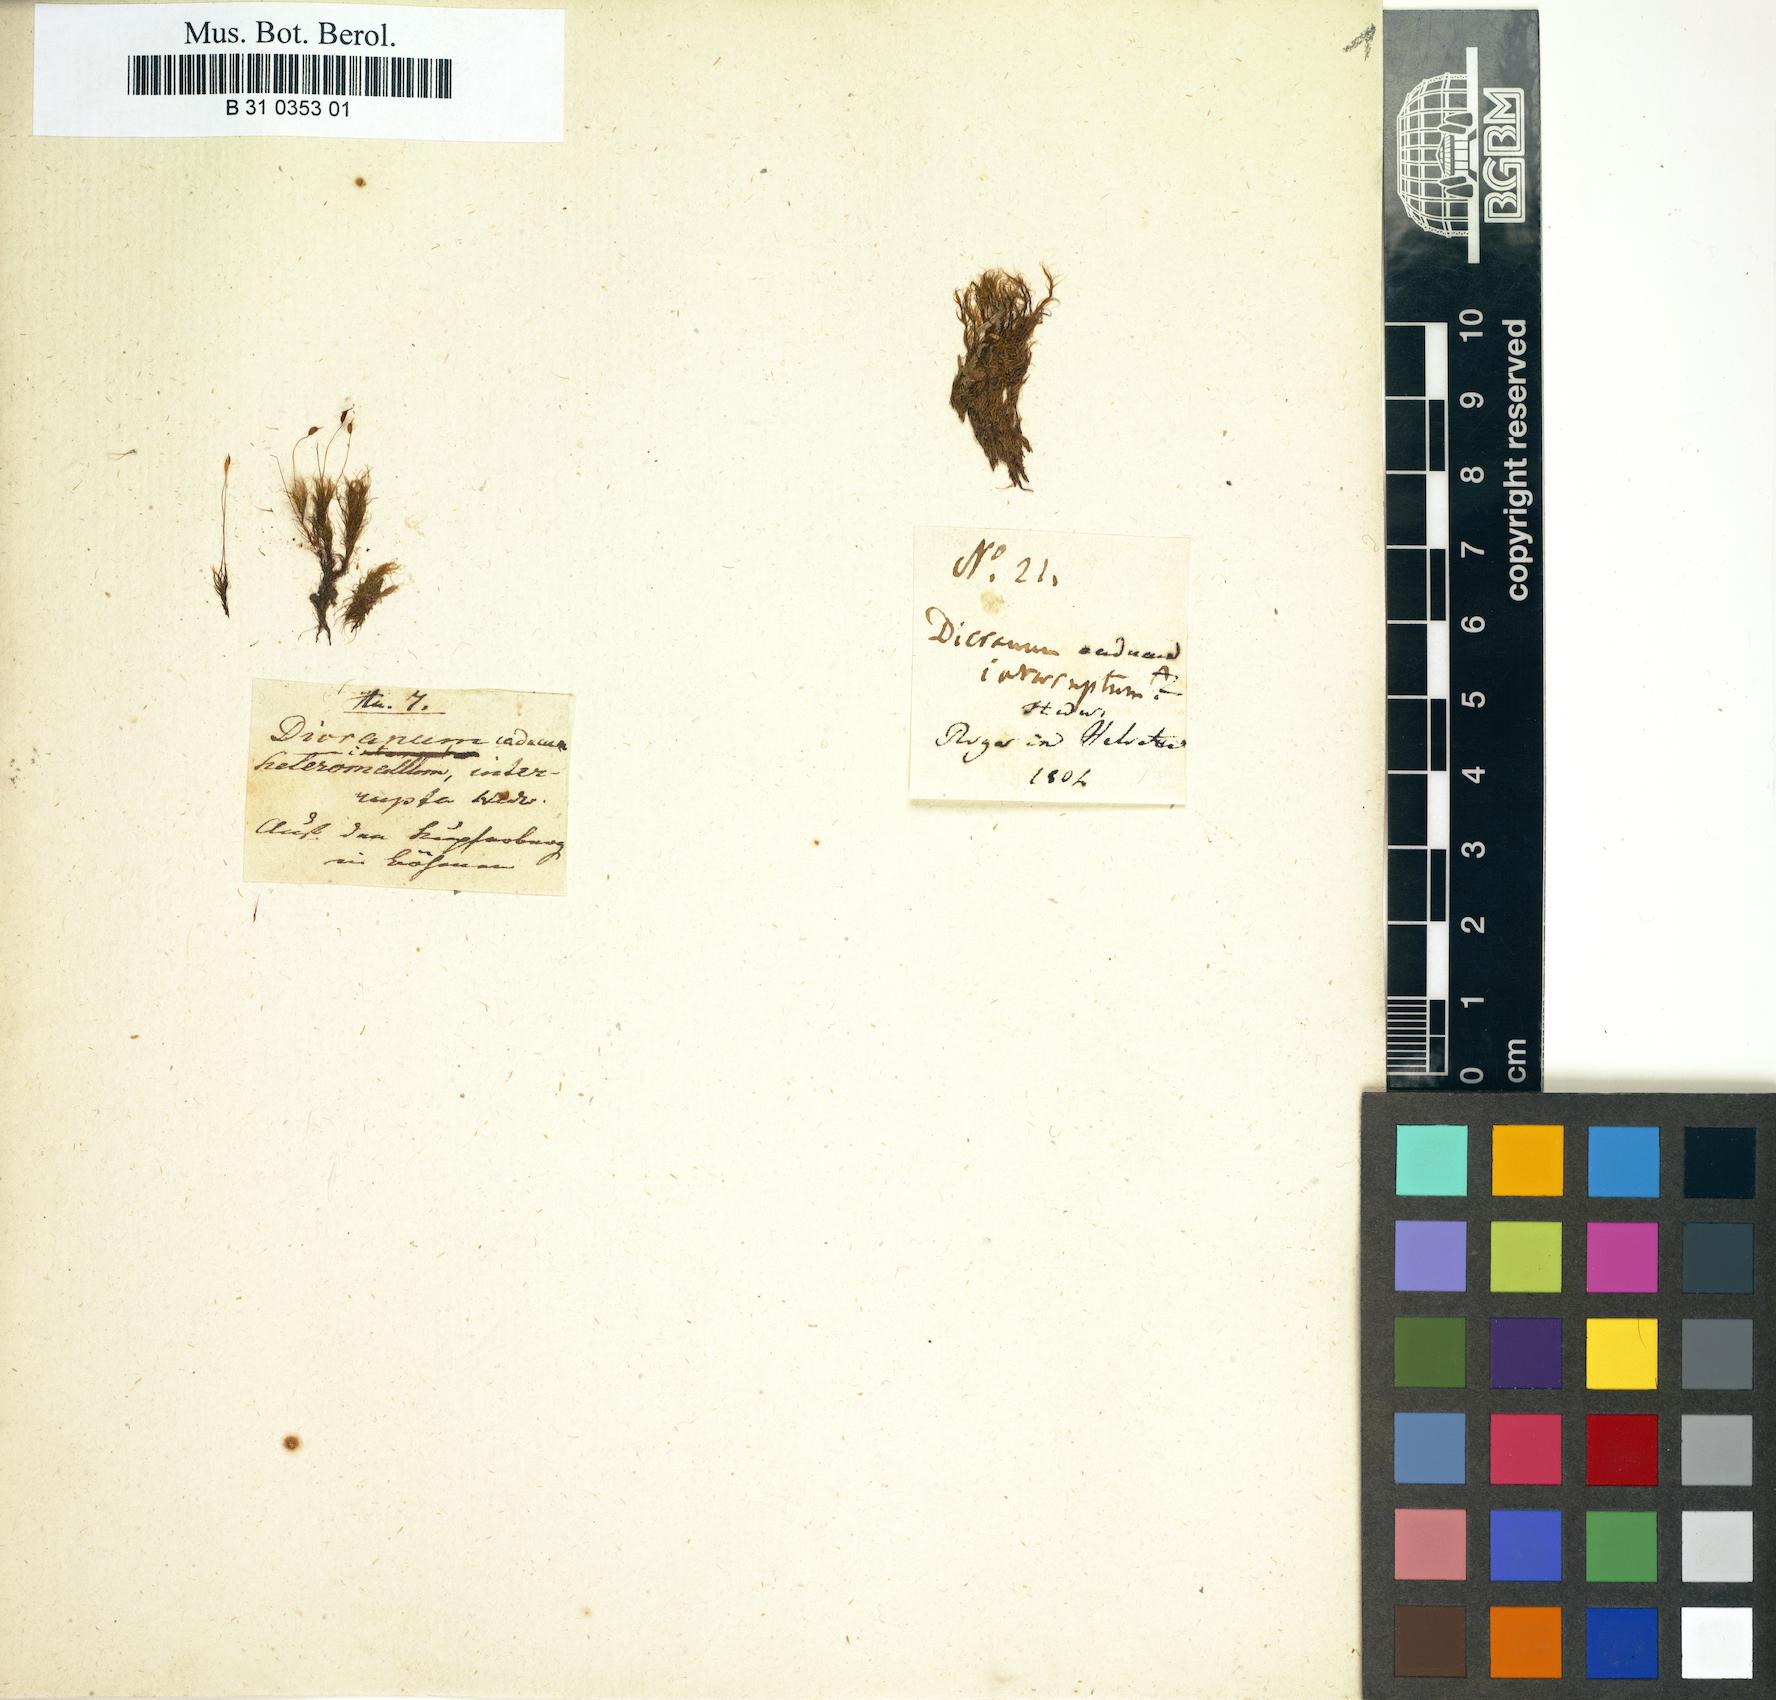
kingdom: Plantae
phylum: Bryophyta
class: Bryopsida
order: Dicranales
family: Dicranellaceae
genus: Dicranella
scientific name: Dicranella heteromalla
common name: Silky forklet moss
